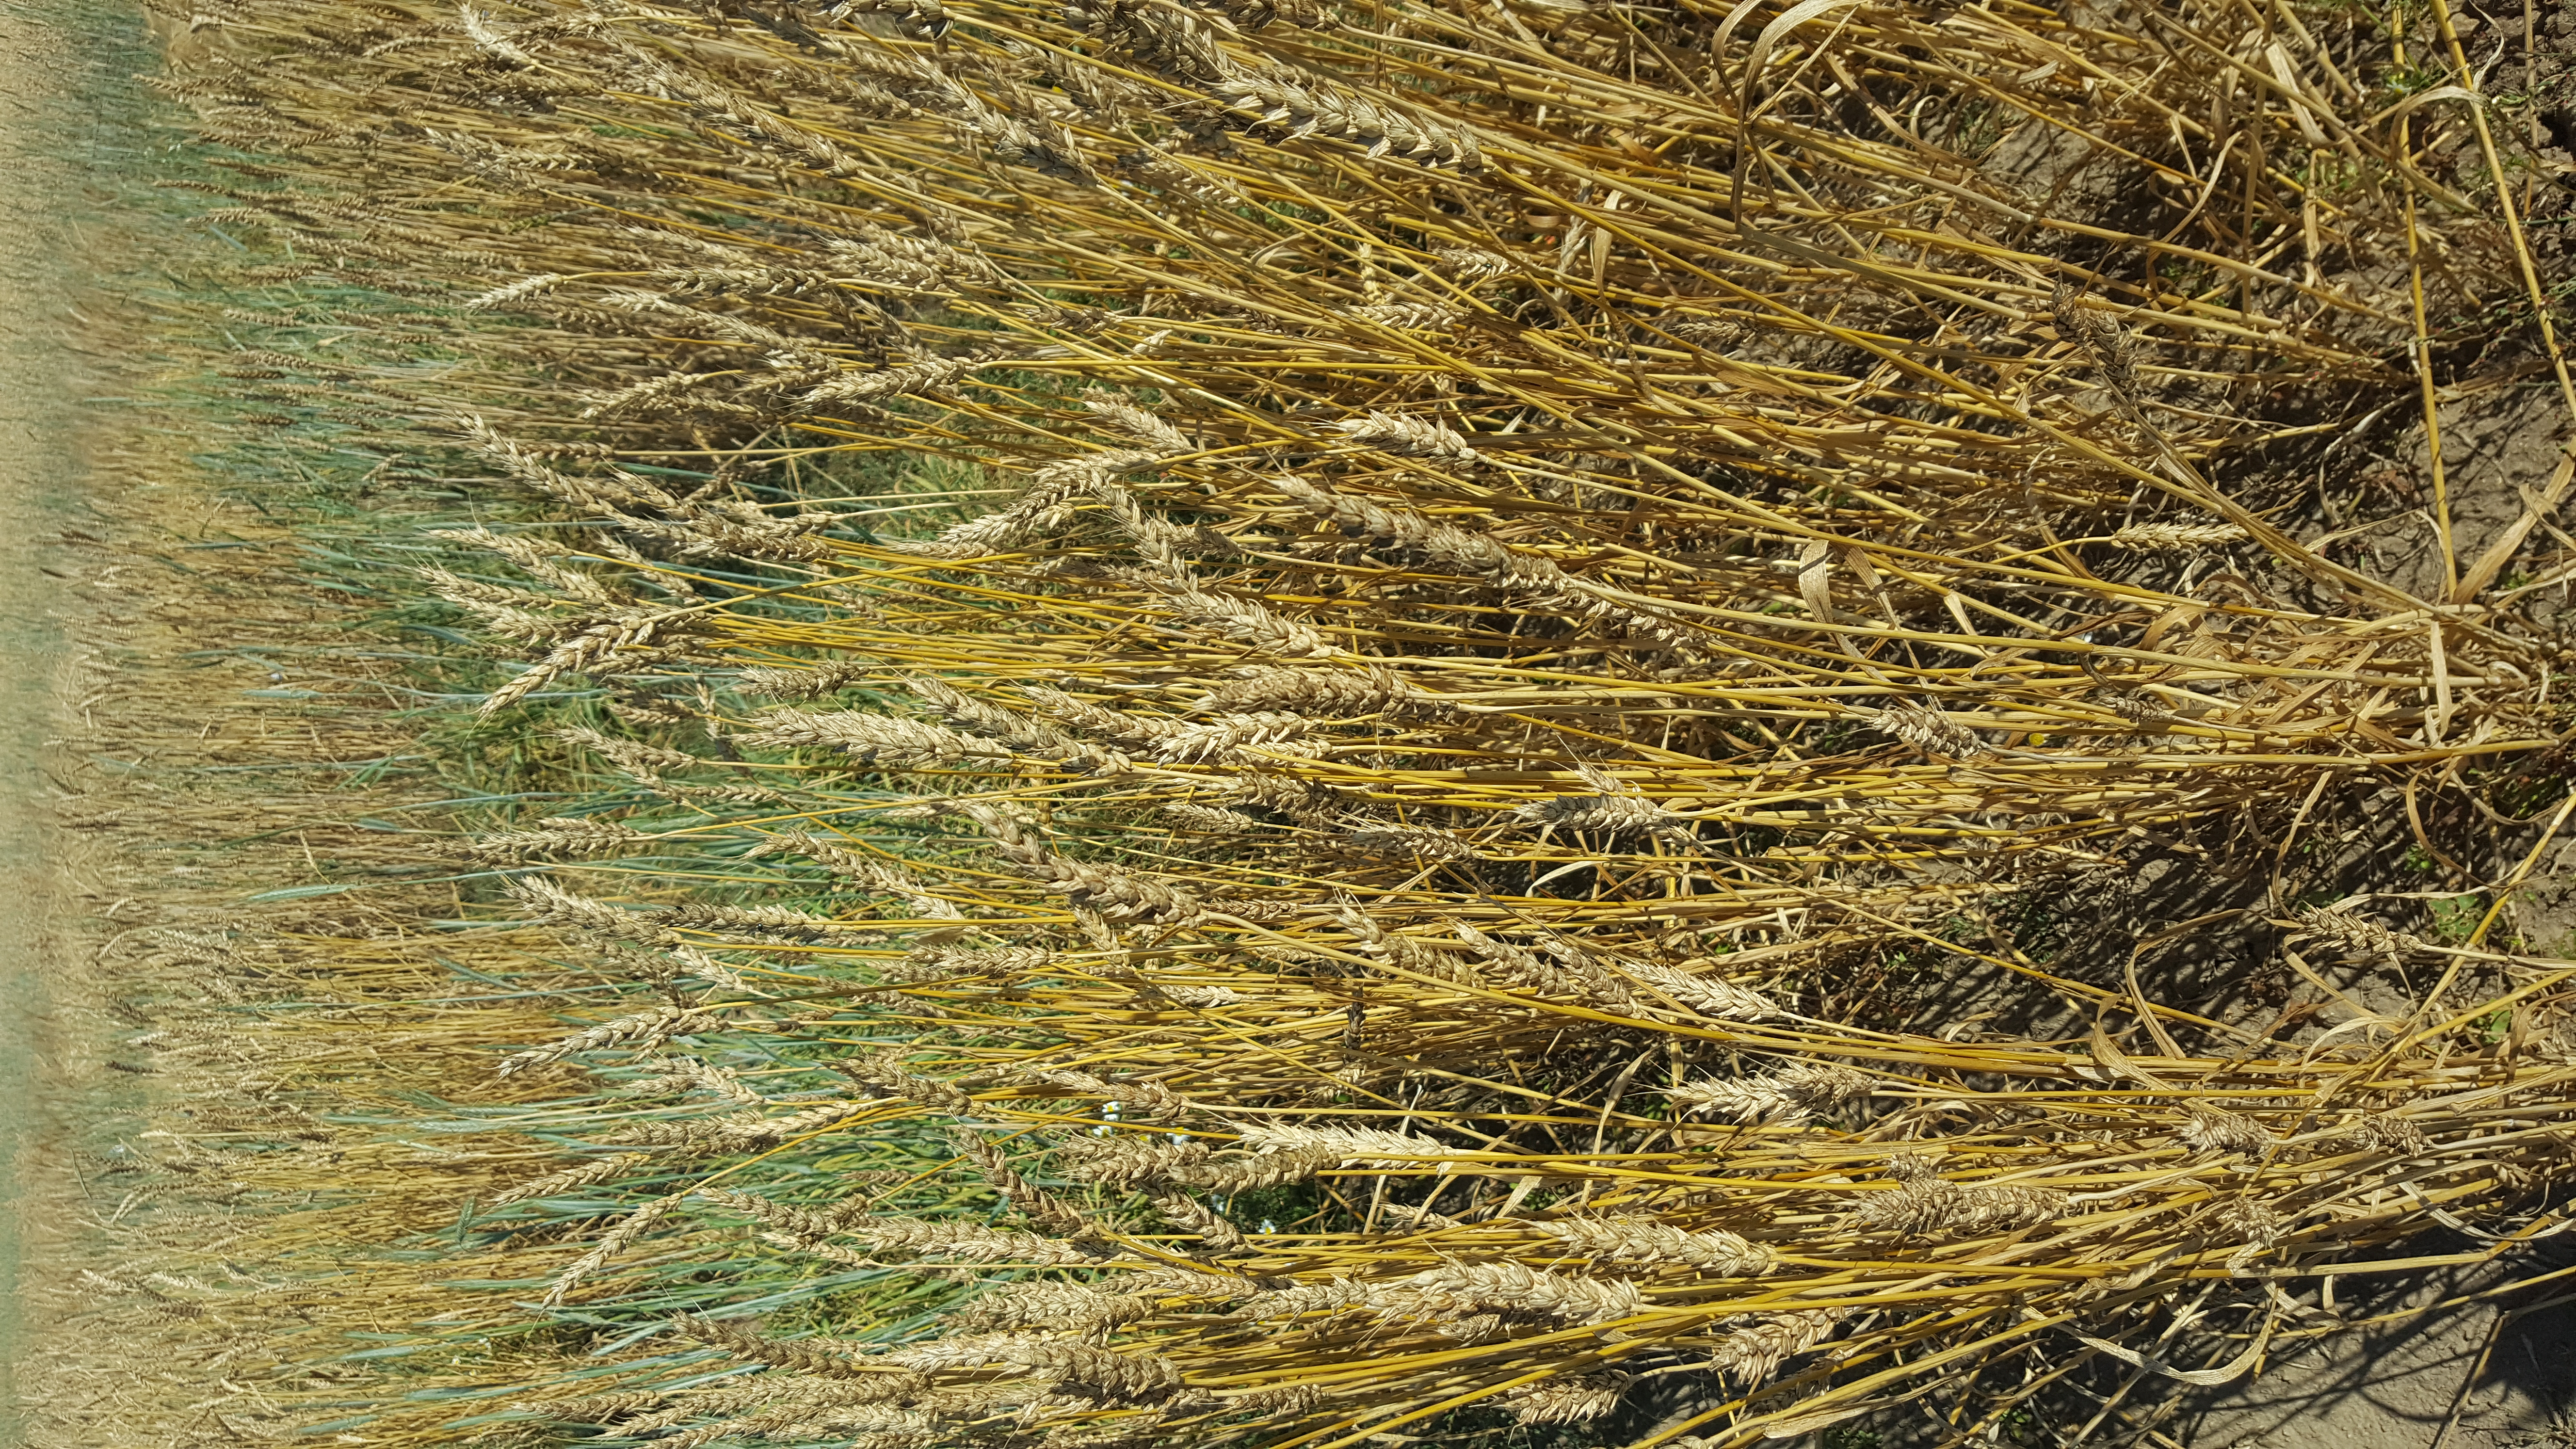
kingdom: Plantae
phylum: Tracheophyta
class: Liliopsida
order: Poales
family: Poaceae
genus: Triticum
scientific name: Triticum aestivum
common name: Common wheat
